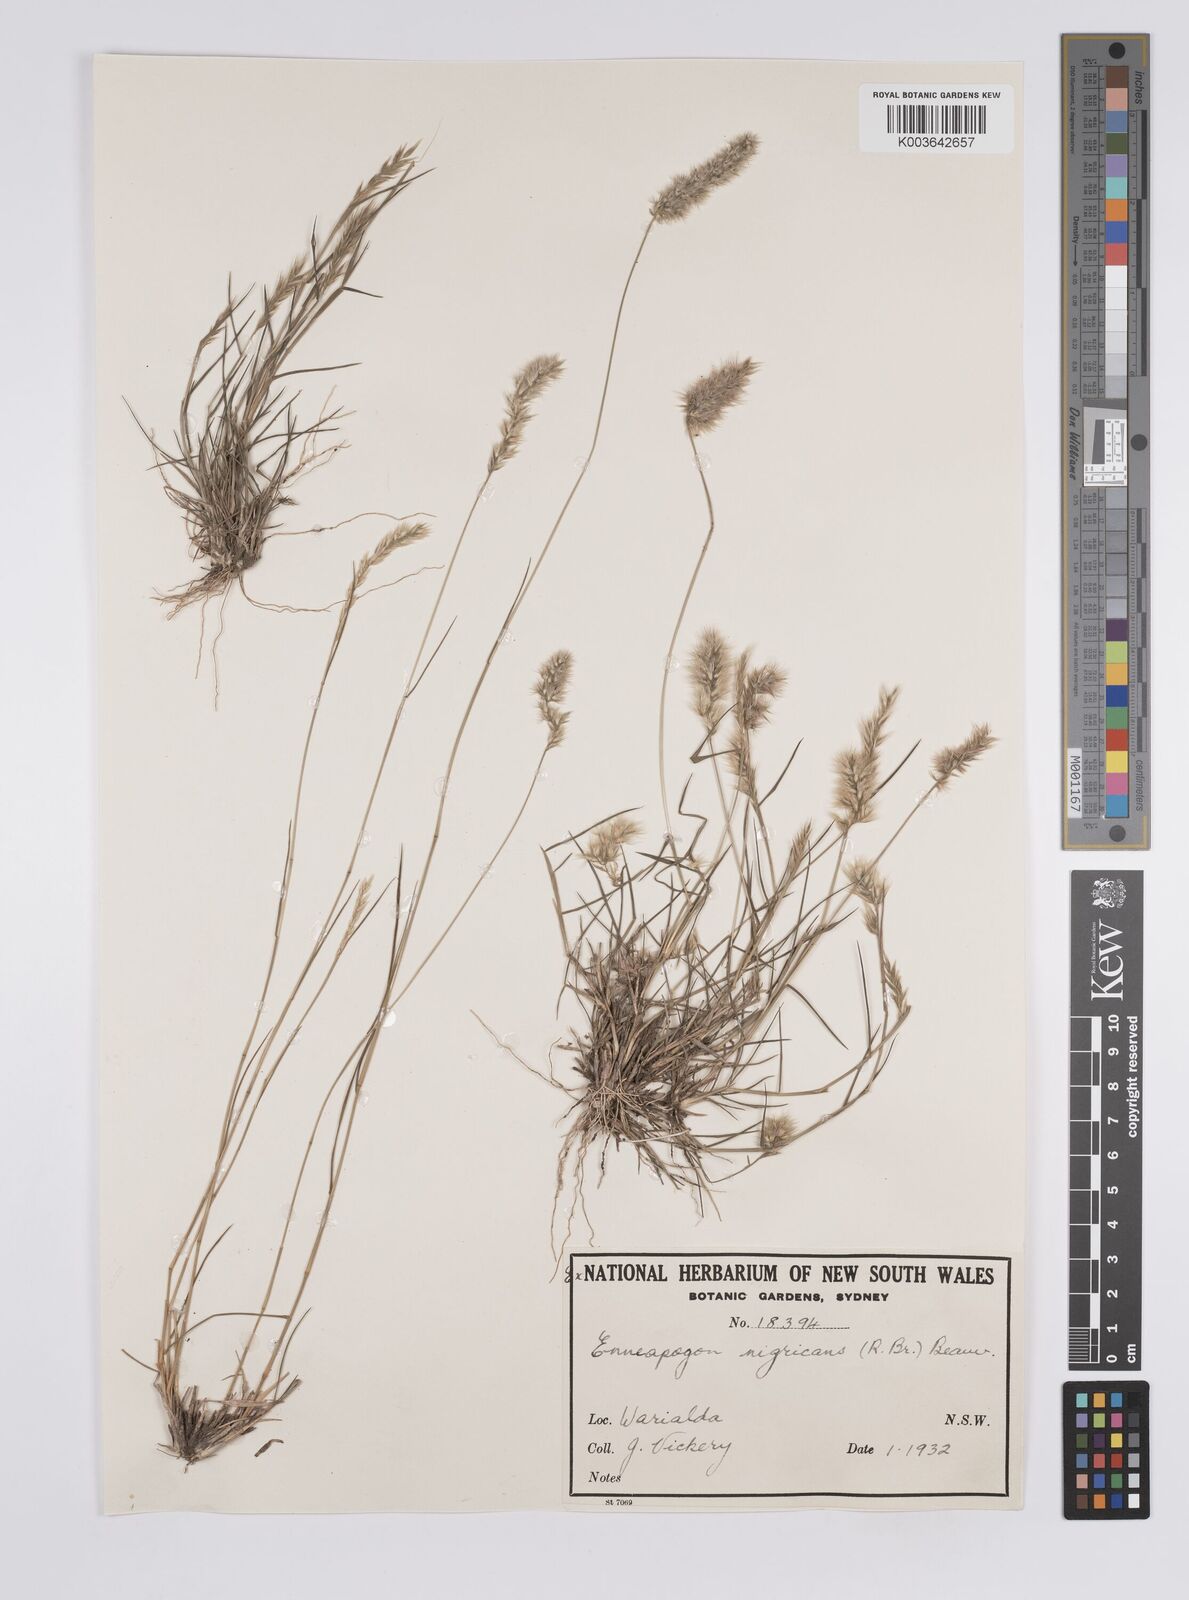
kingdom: Plantae
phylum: Tracheophyta
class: Liliopsida
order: Poales
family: Poaceae
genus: Enneapogon
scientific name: Enneapogon nigricans
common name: Pappus grass
